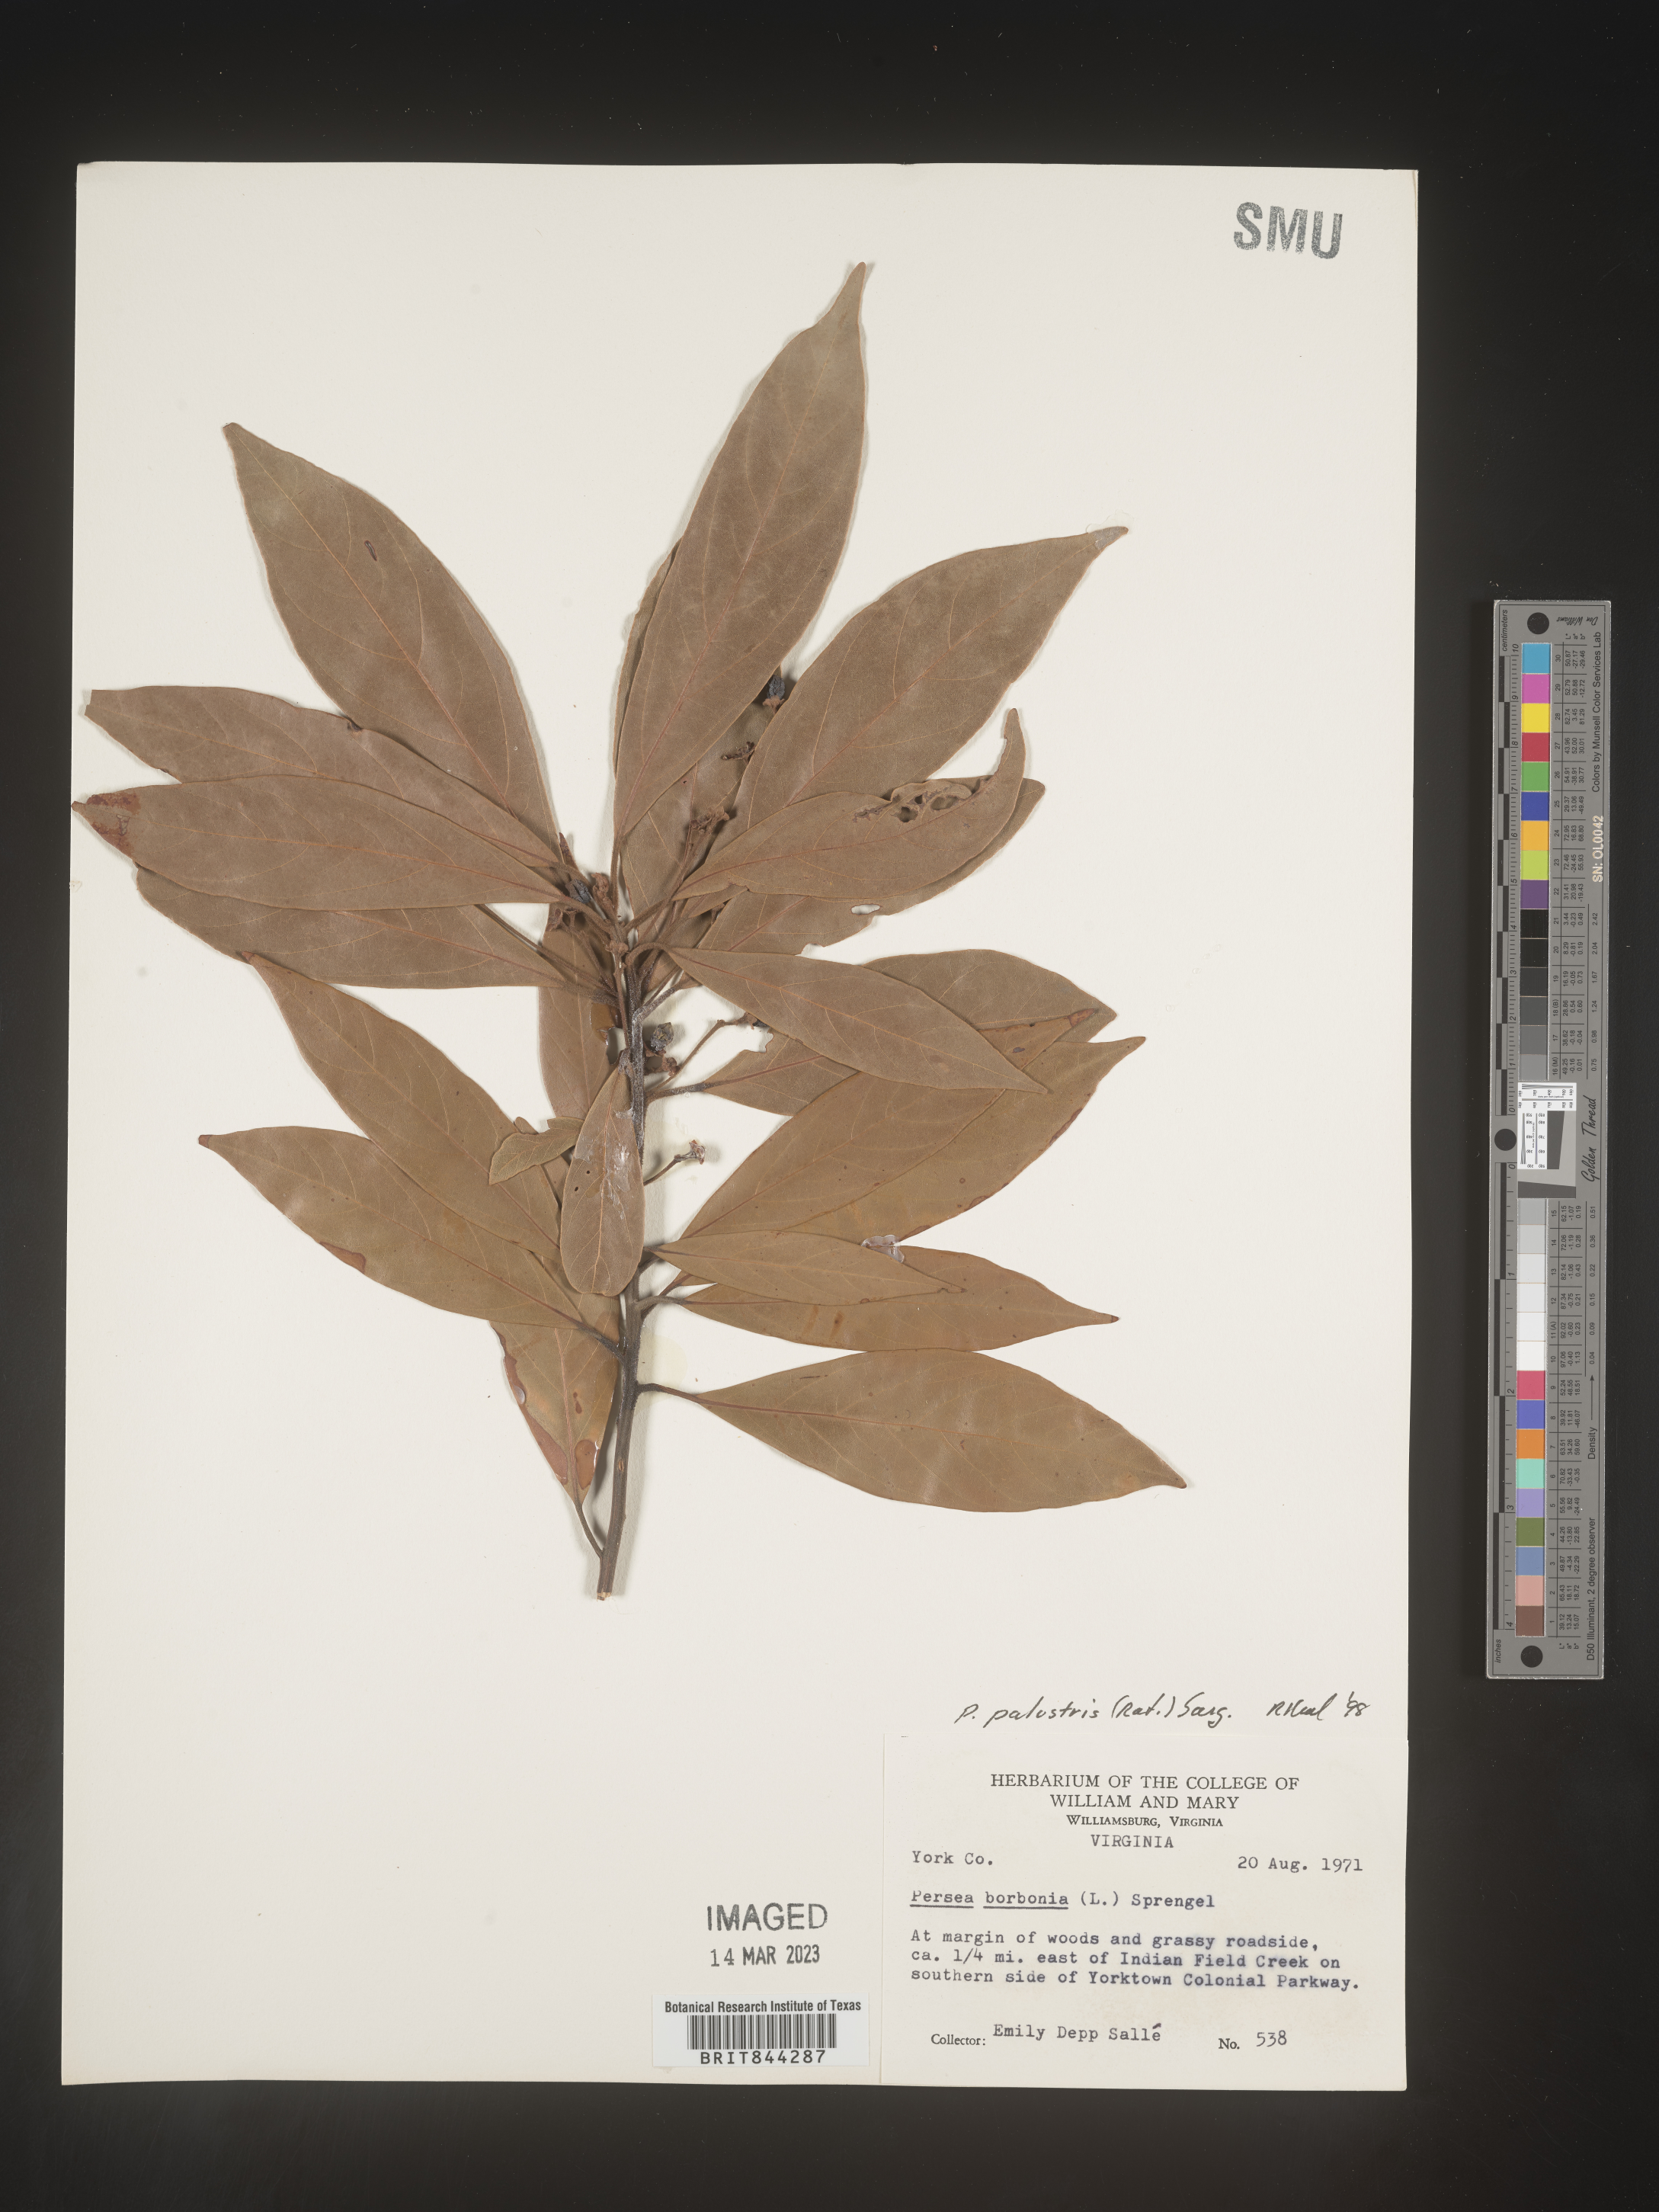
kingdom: Plantae
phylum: Tracheophyta
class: Magnoliopsida
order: Laurales
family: Lauraceae
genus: Persea
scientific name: Persea palustris
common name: Swampbay
